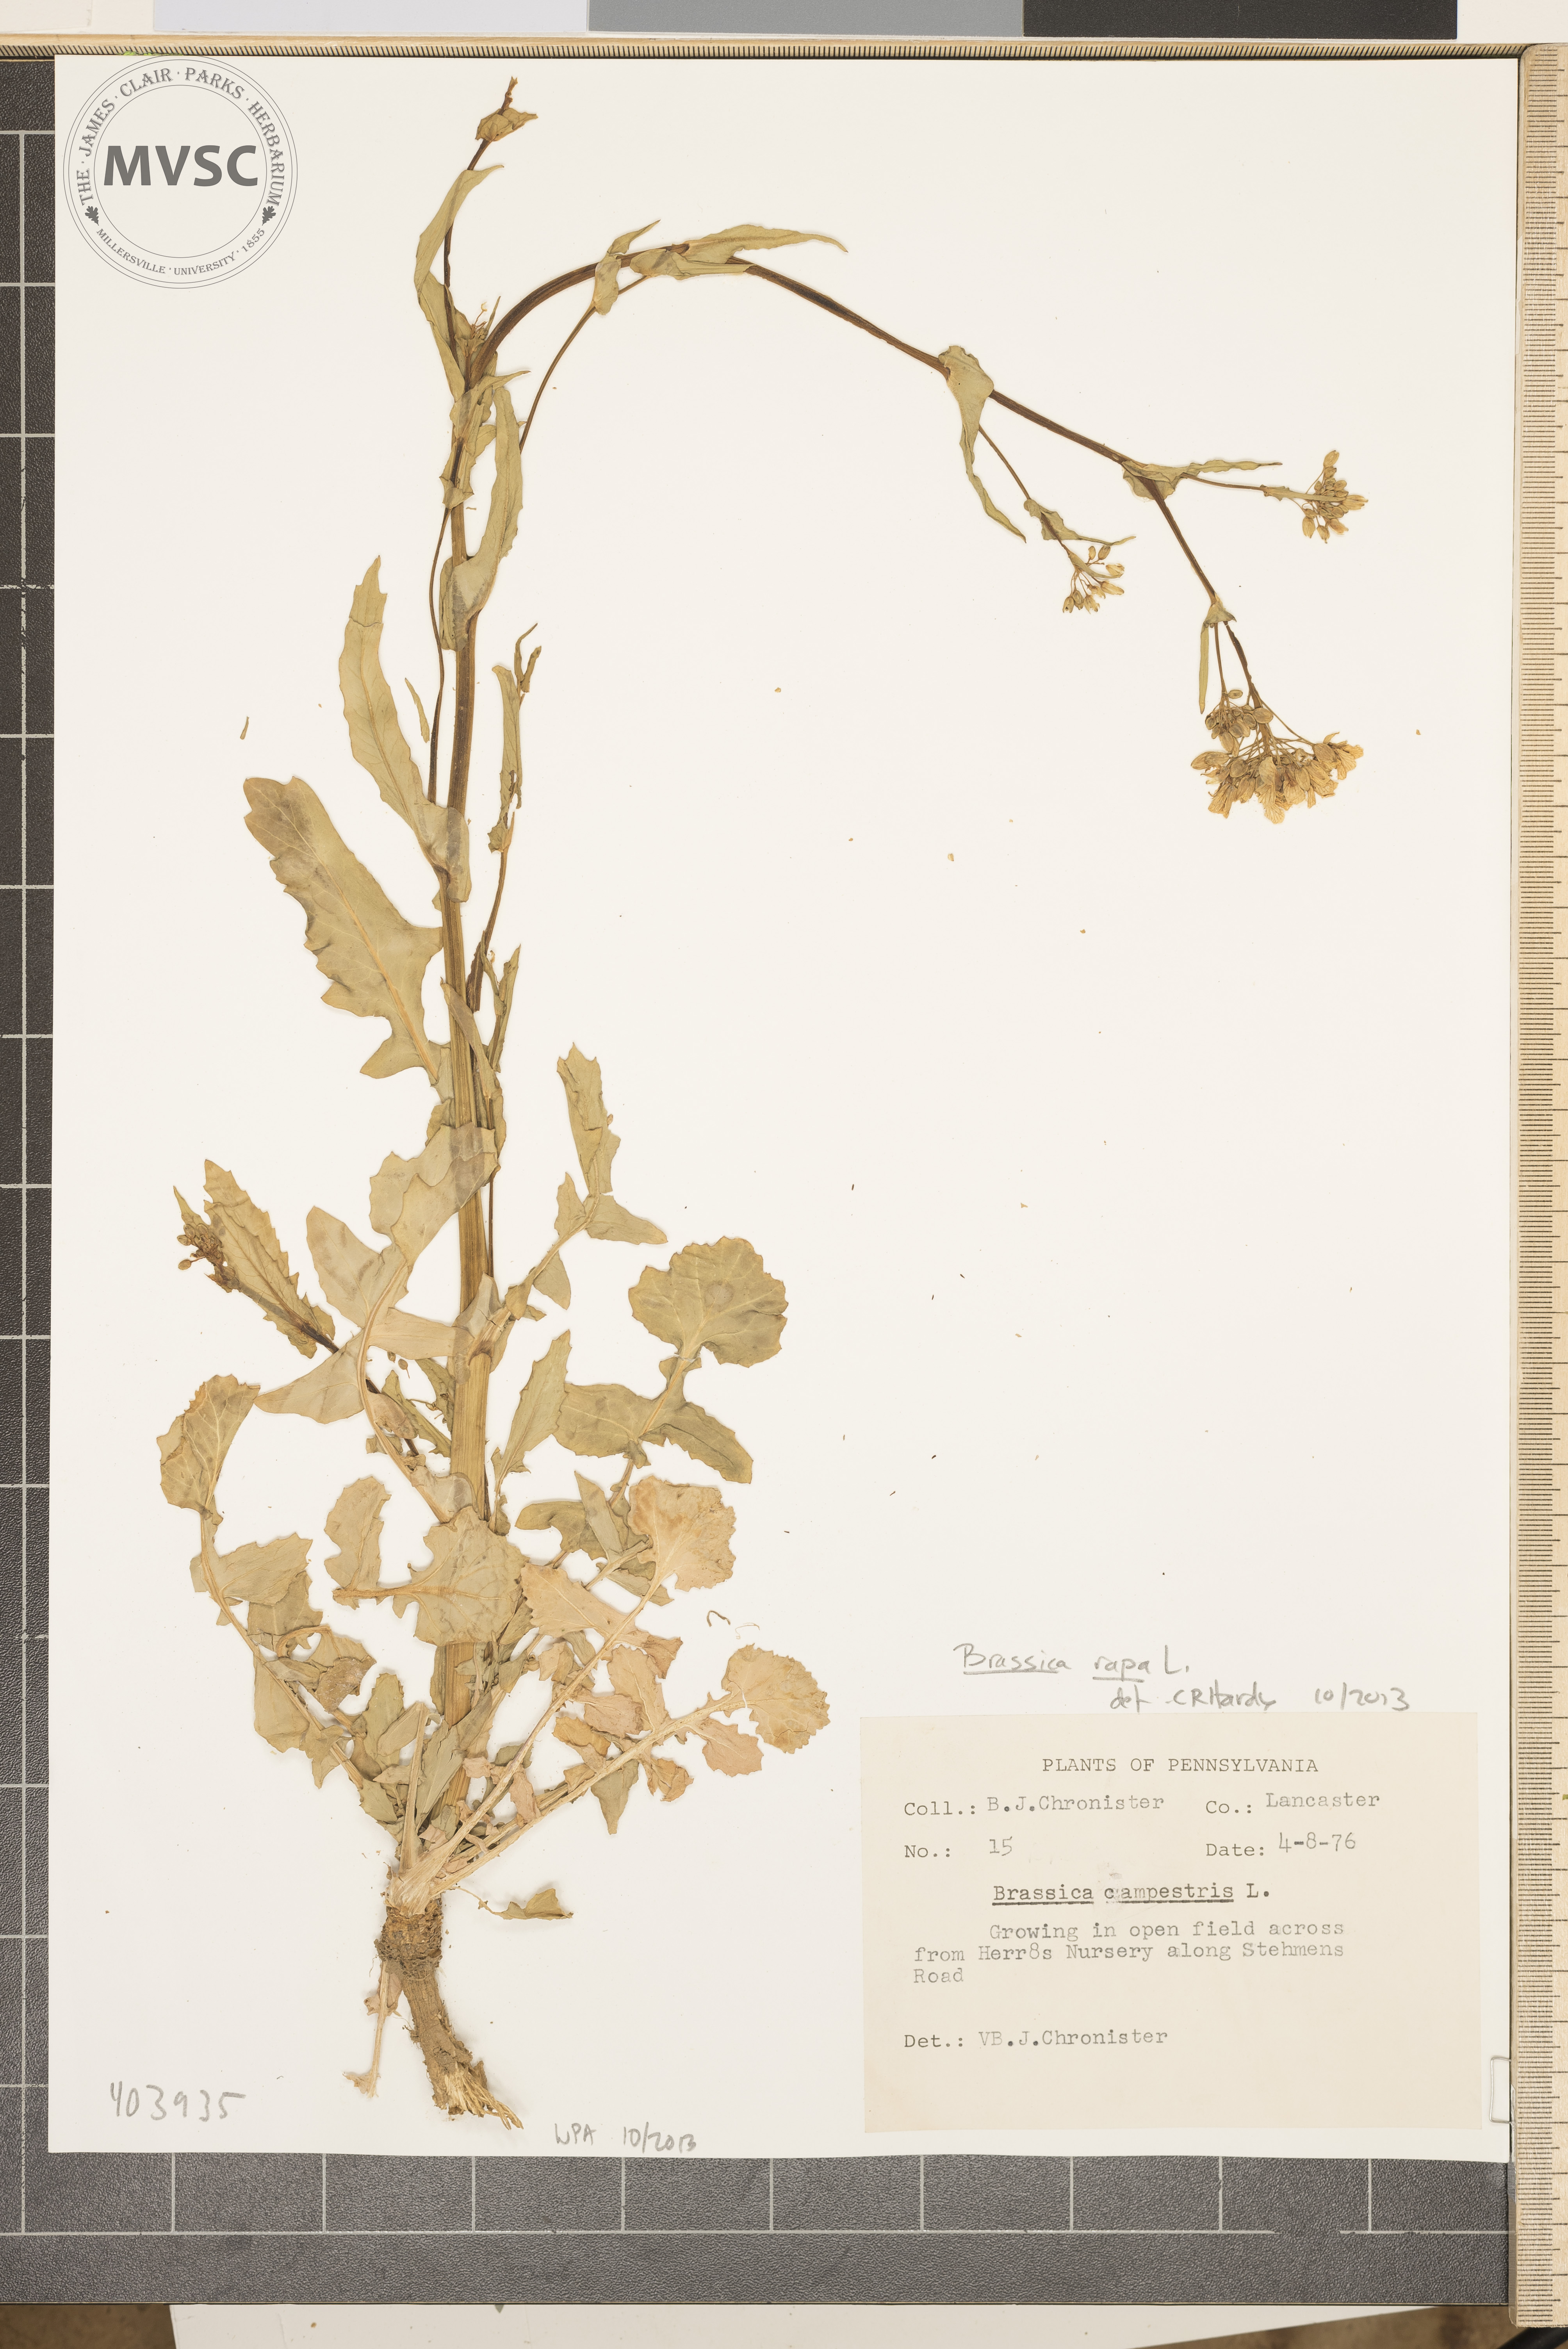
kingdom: Plantae
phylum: Tracheophyta
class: Magnoliopsida
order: Brassicales
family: Brassicaceae
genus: Brassica
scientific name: Brassica rapa
